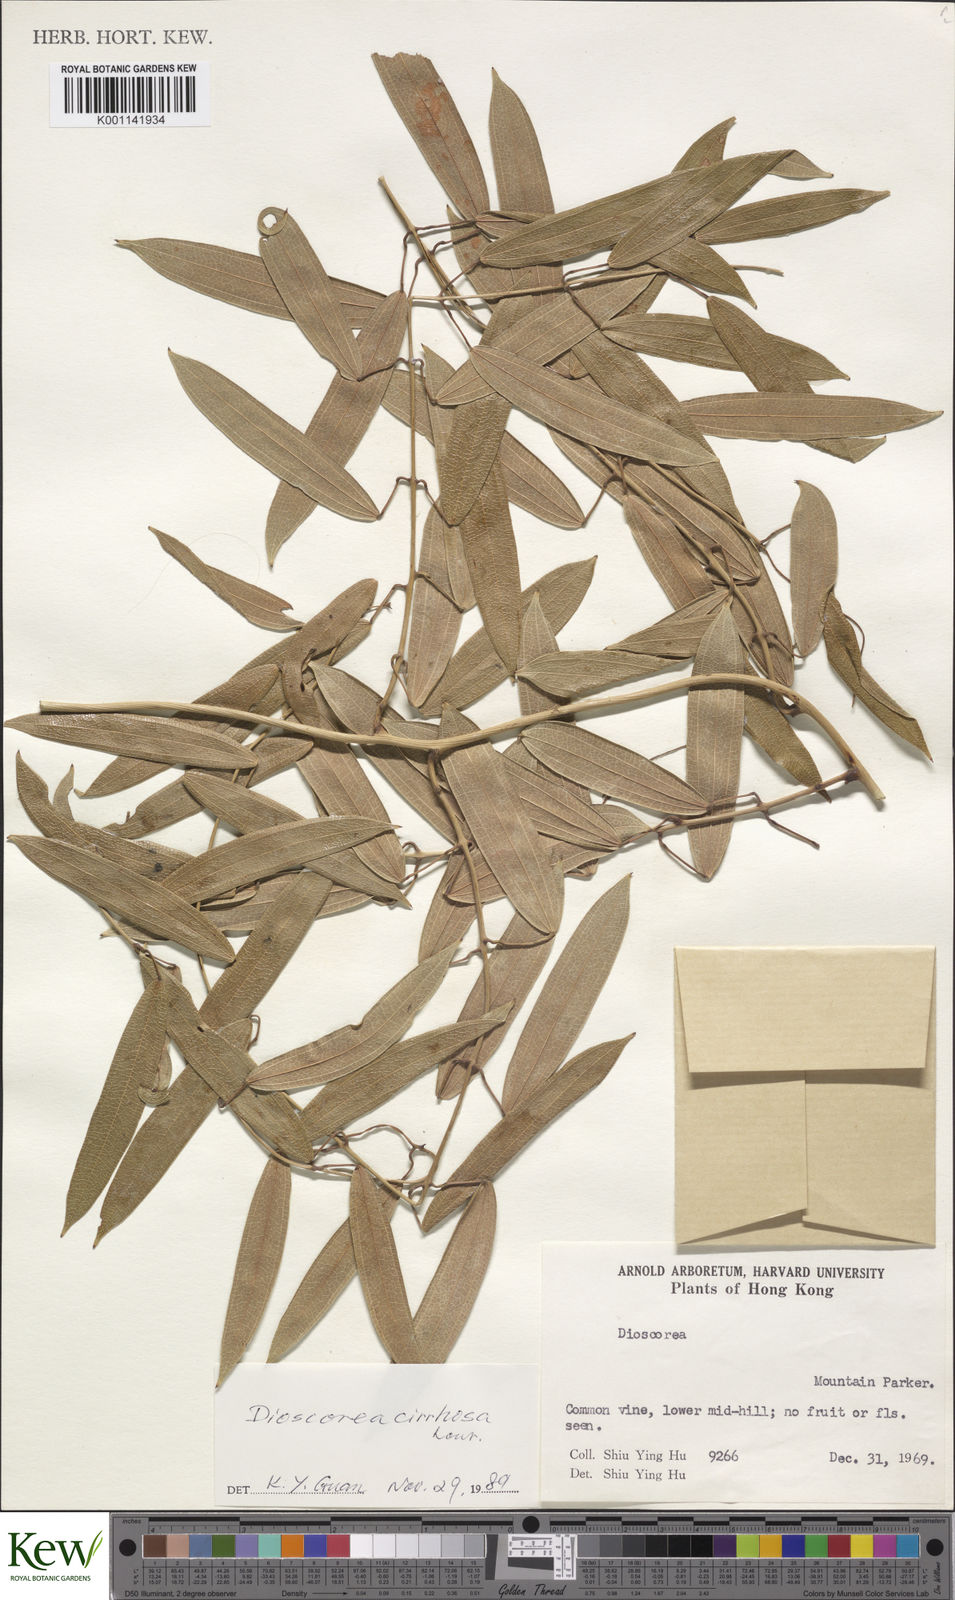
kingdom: Plantae
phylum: Tracheophyta
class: Liliopsida
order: Dioscoreales
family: Dioscoreaceae
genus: Dioscorea
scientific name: Dioscorea cirrhosa
